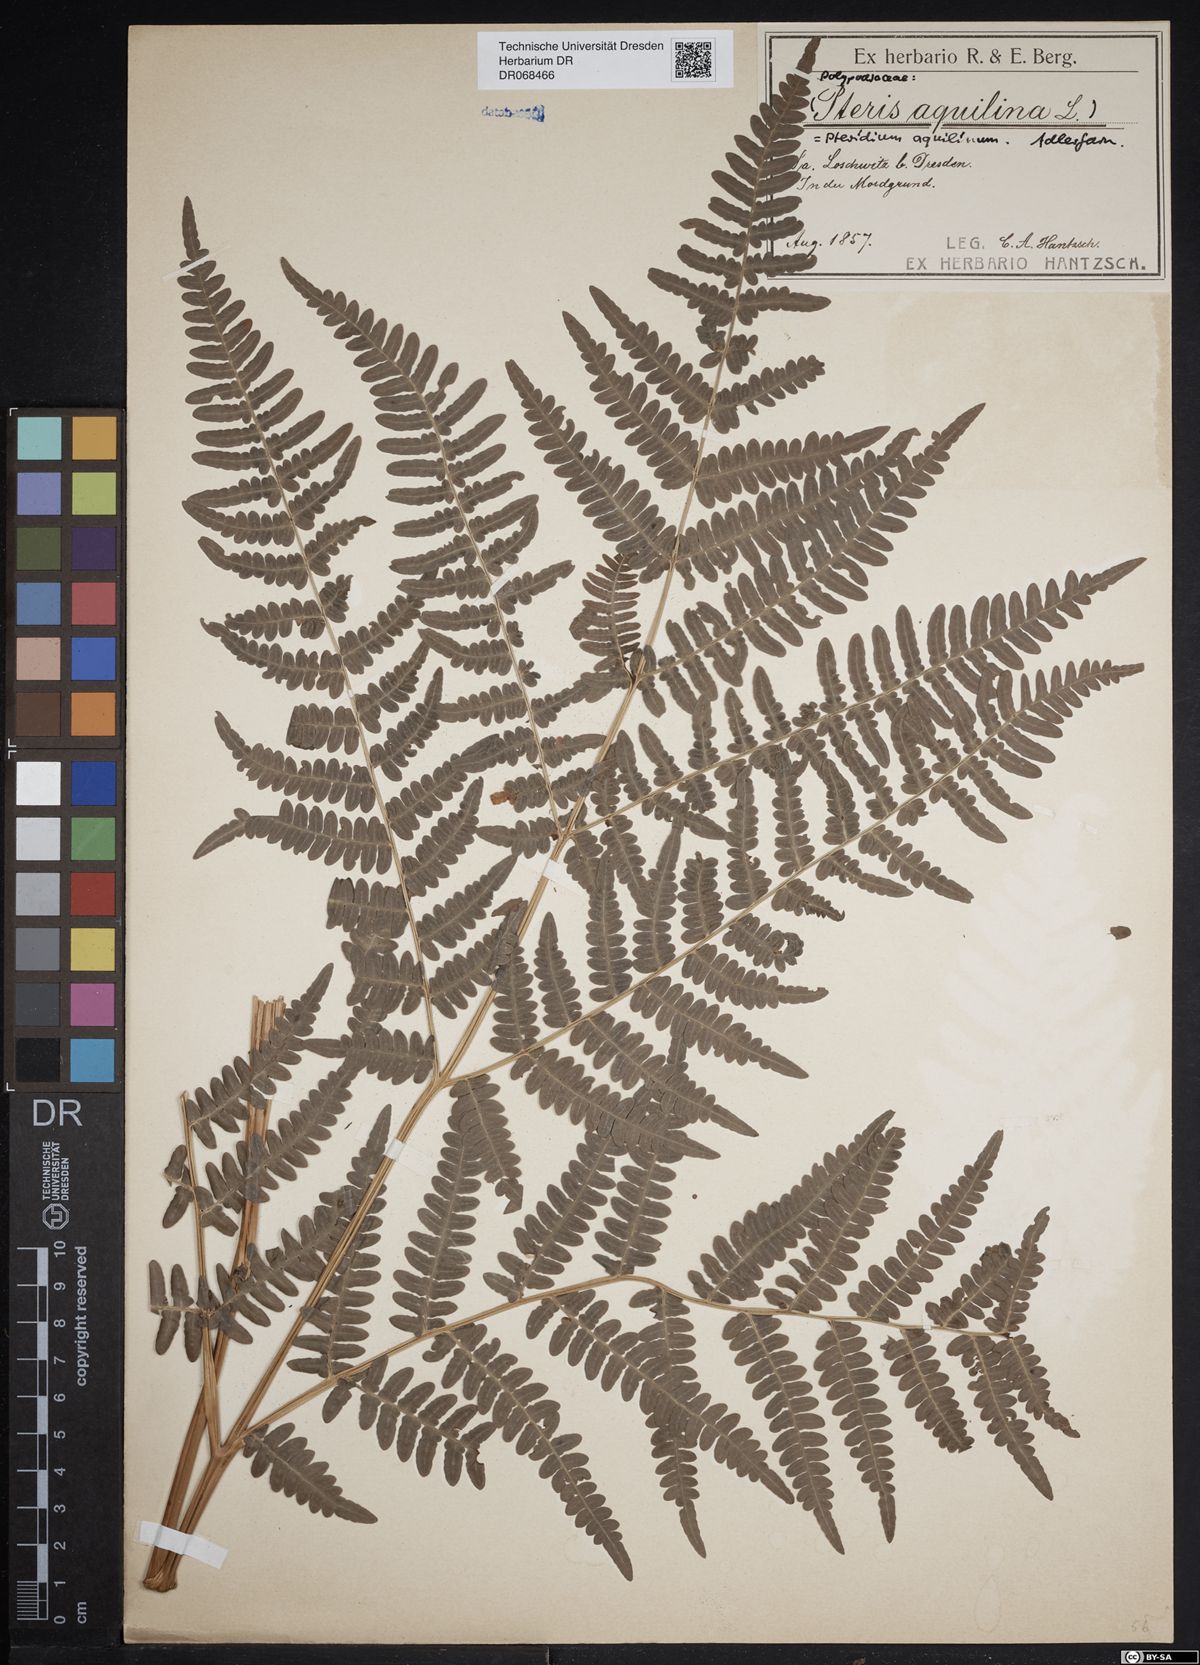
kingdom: Plantae
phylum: Tracheophyta
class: Polypodiopsida
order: Polypodiales
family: Dennstaedtiaceae
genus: Pteridium
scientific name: Pteridium aquilinum
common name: Bracken
